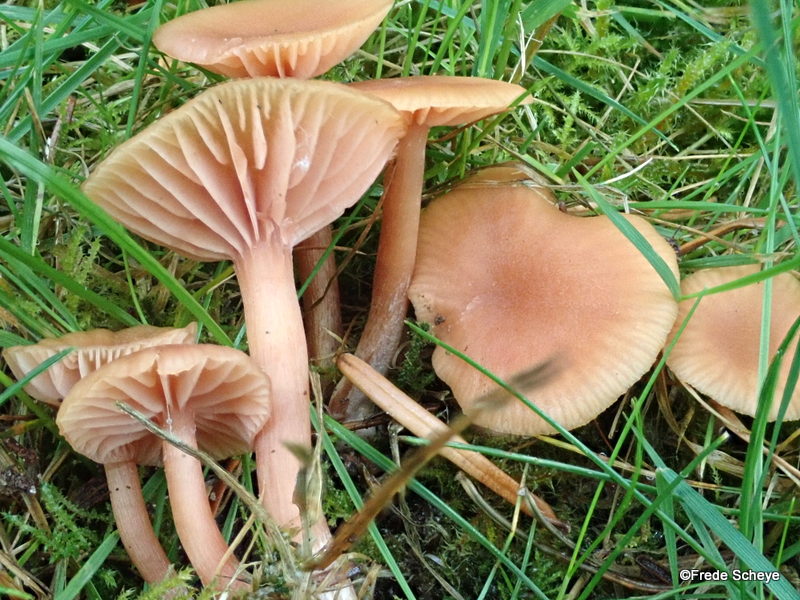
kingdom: Fungi
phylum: Basidiomycota
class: Agaricomycetes
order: Agaricales
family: Hydnangiaceae
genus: Laccaria
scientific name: Laccaria laccata
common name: rød ametysthat
